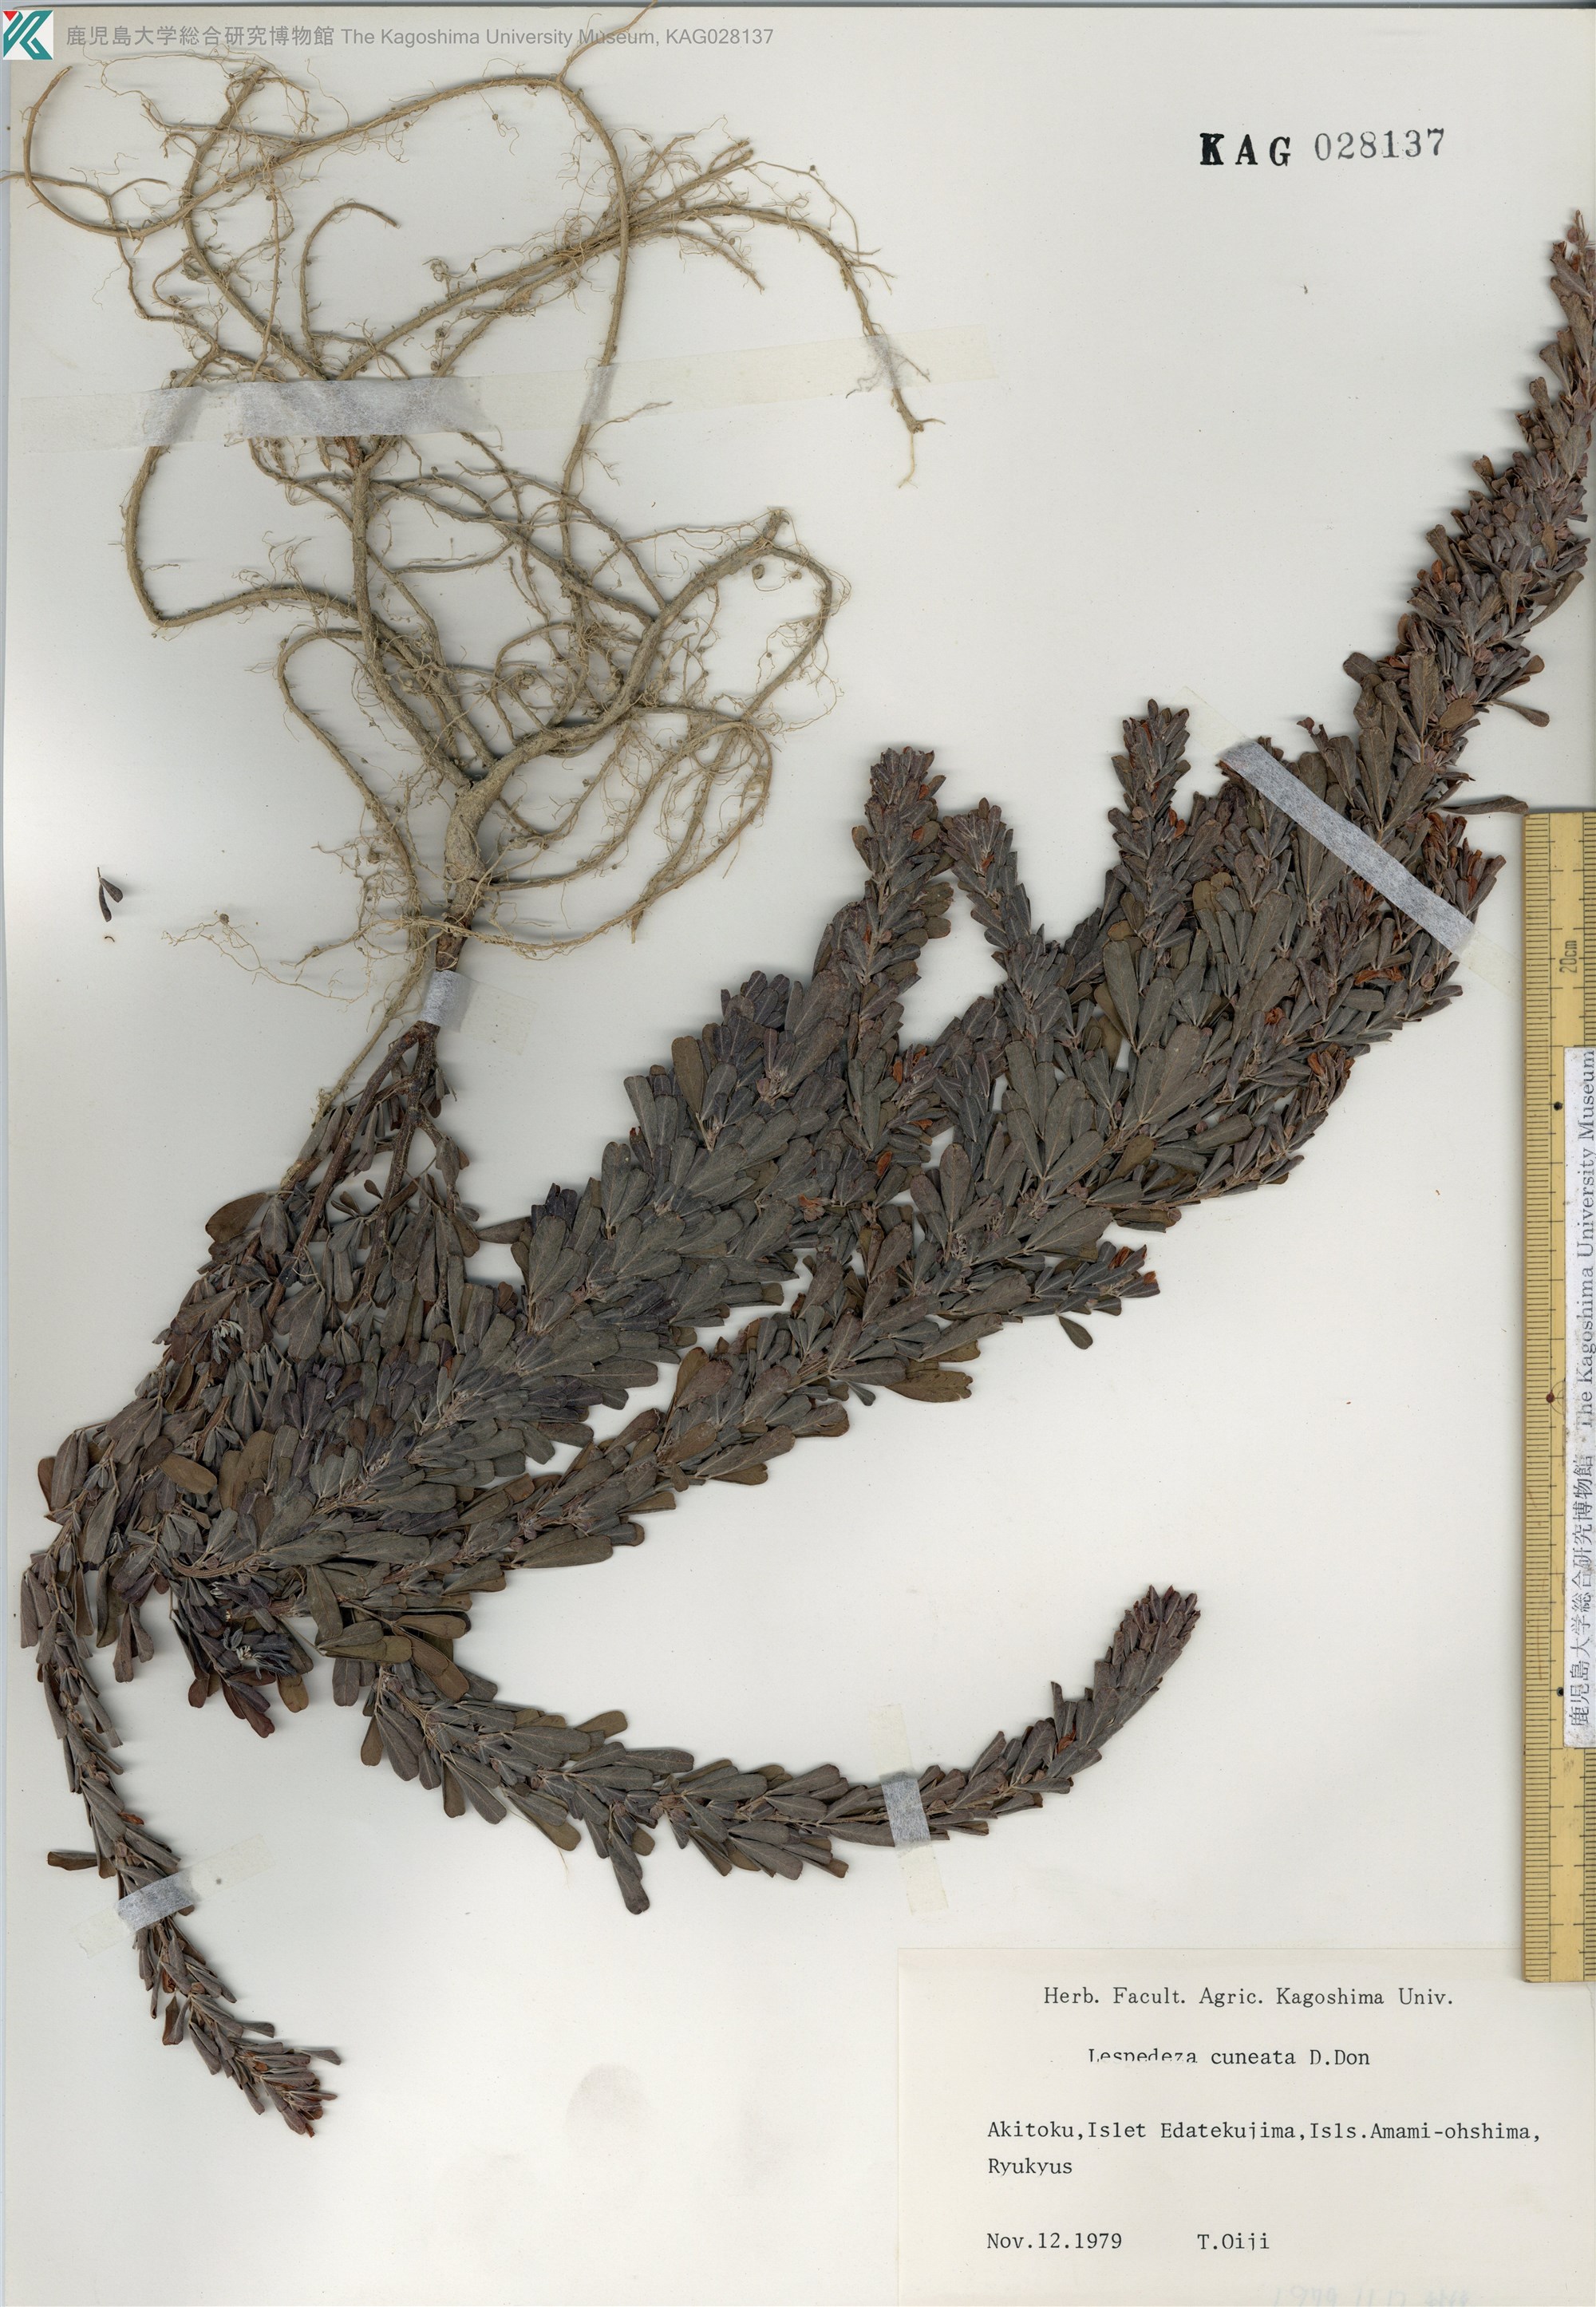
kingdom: Plantae
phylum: Tracheophyta
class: Magnoliopsida
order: Fabales
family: Fabaceae
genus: Lespedeza
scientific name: Lespedeza cuneata
